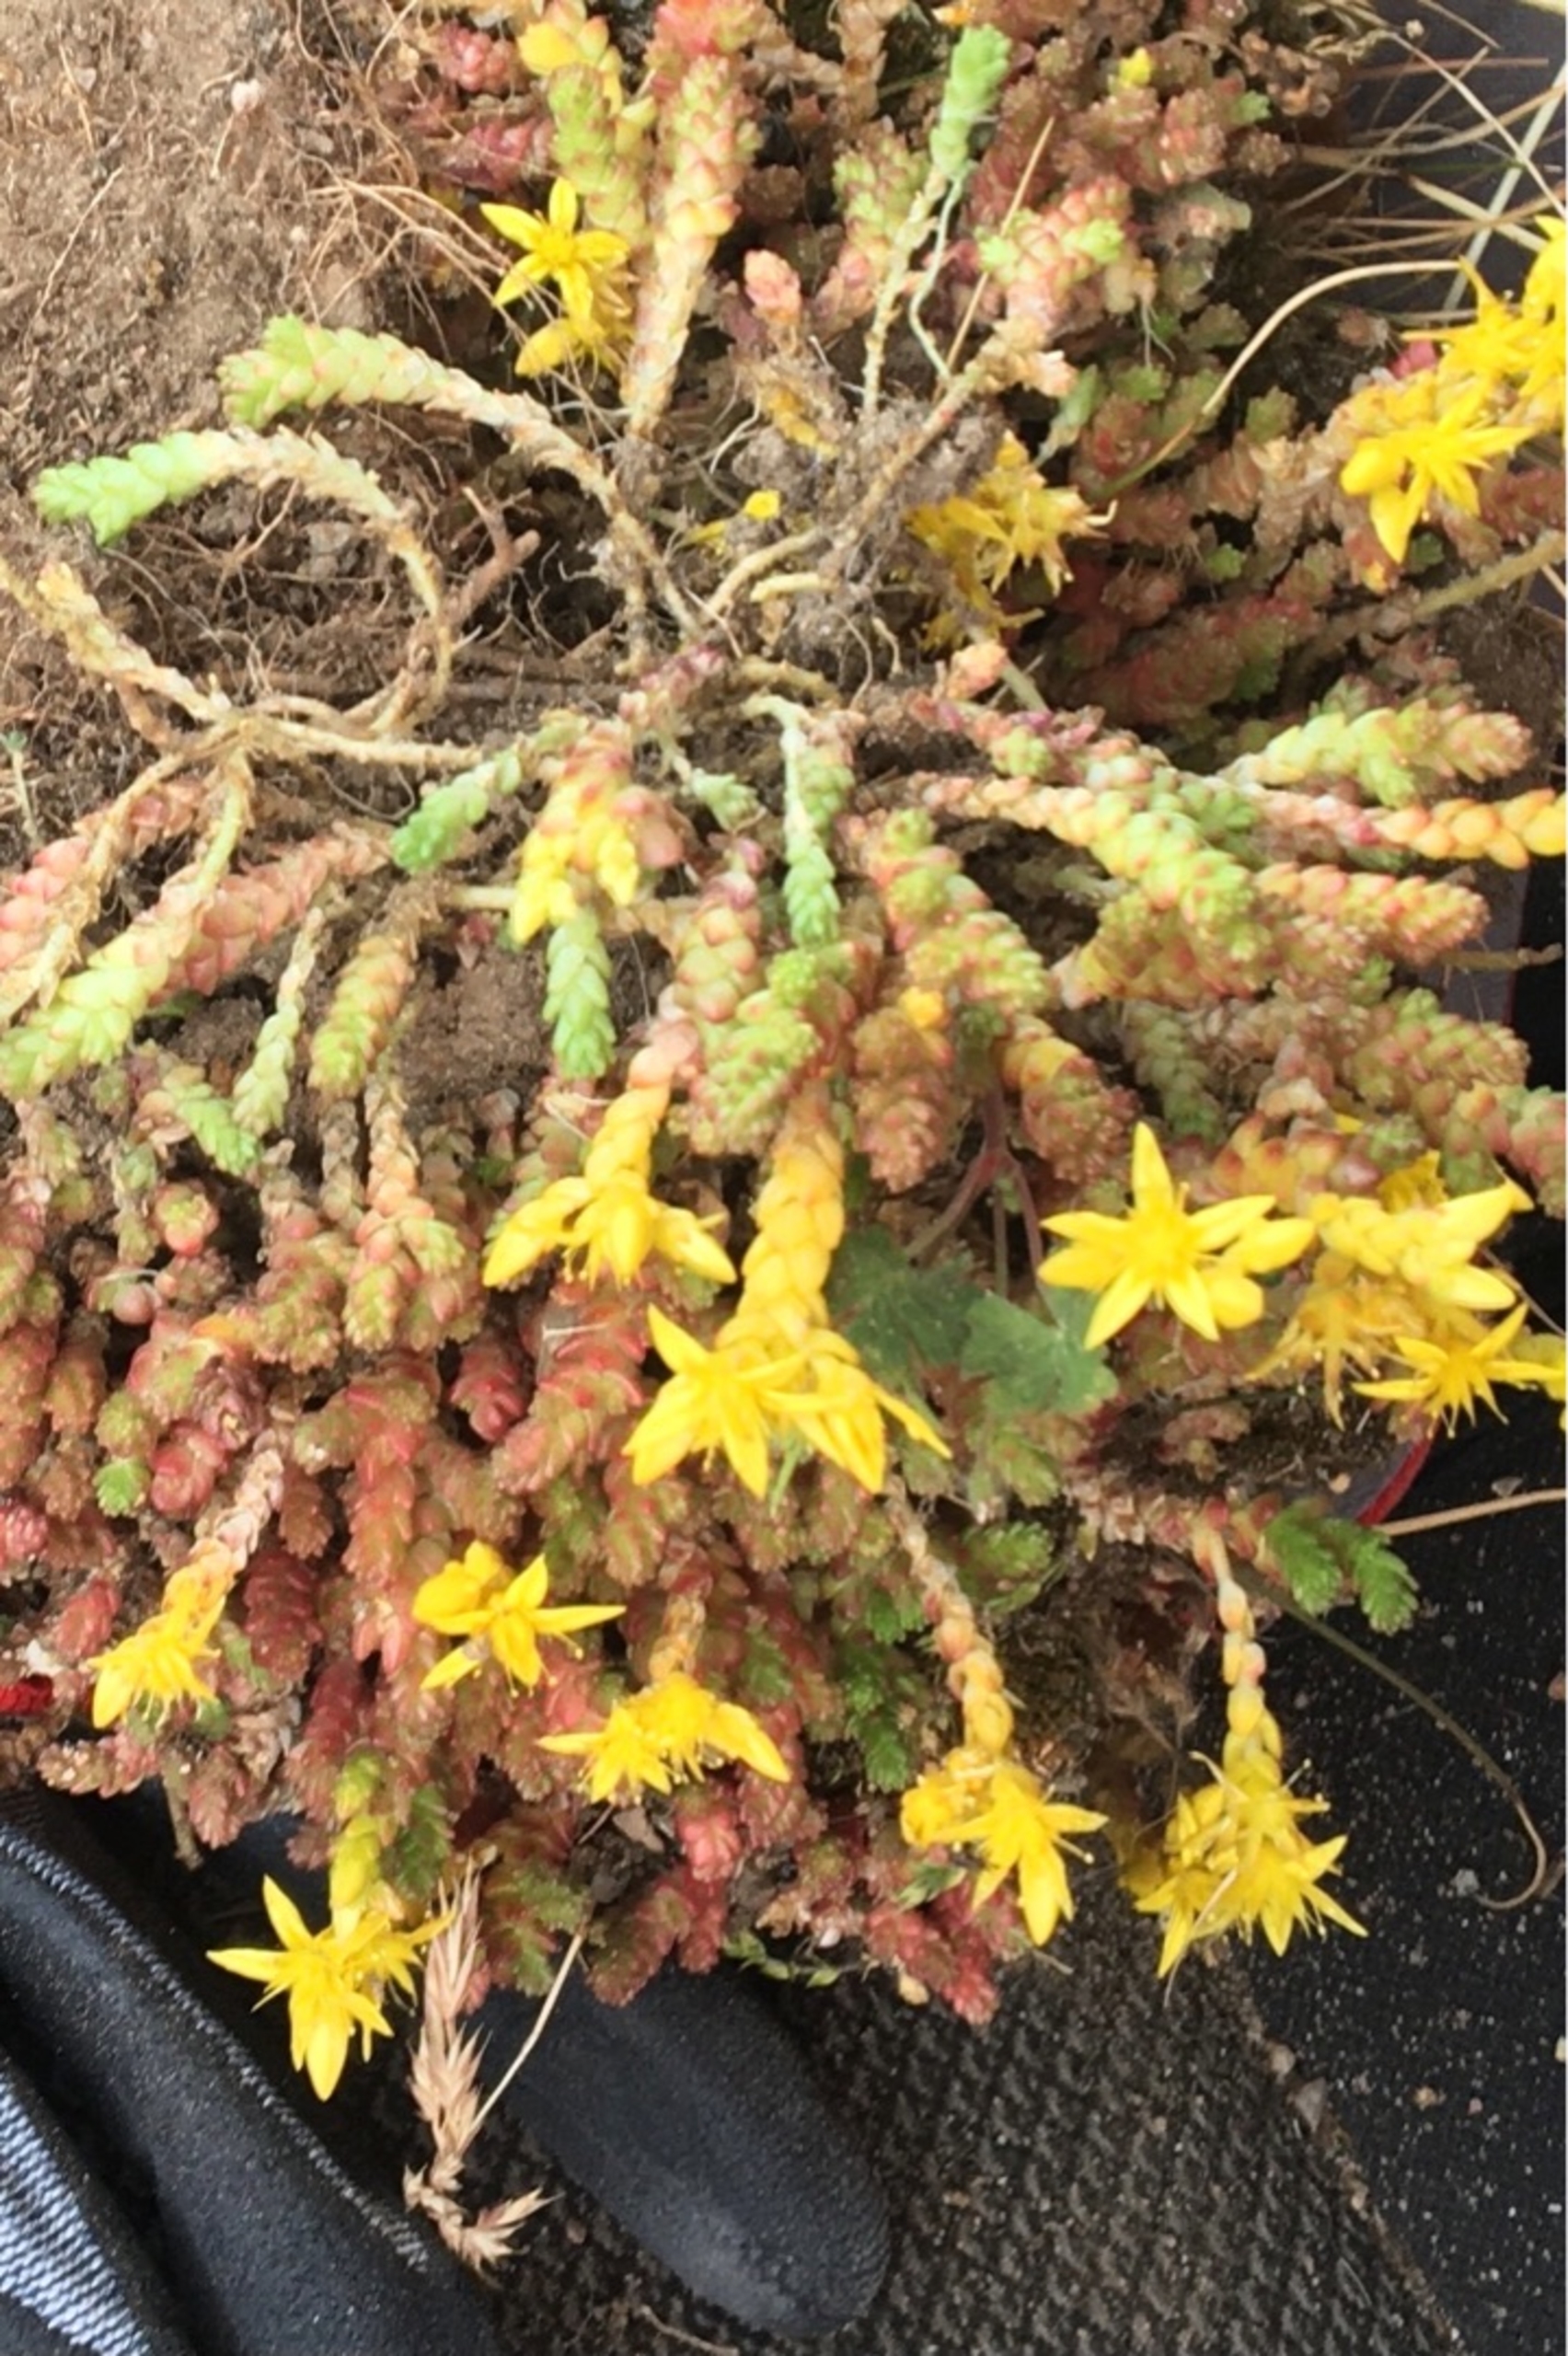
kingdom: Plantae
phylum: Tracheophyta
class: Magnoliopsida
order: Saxifragales
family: Crassulaceae
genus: Sedum
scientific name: Sedum acre
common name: Bidende stenurt
